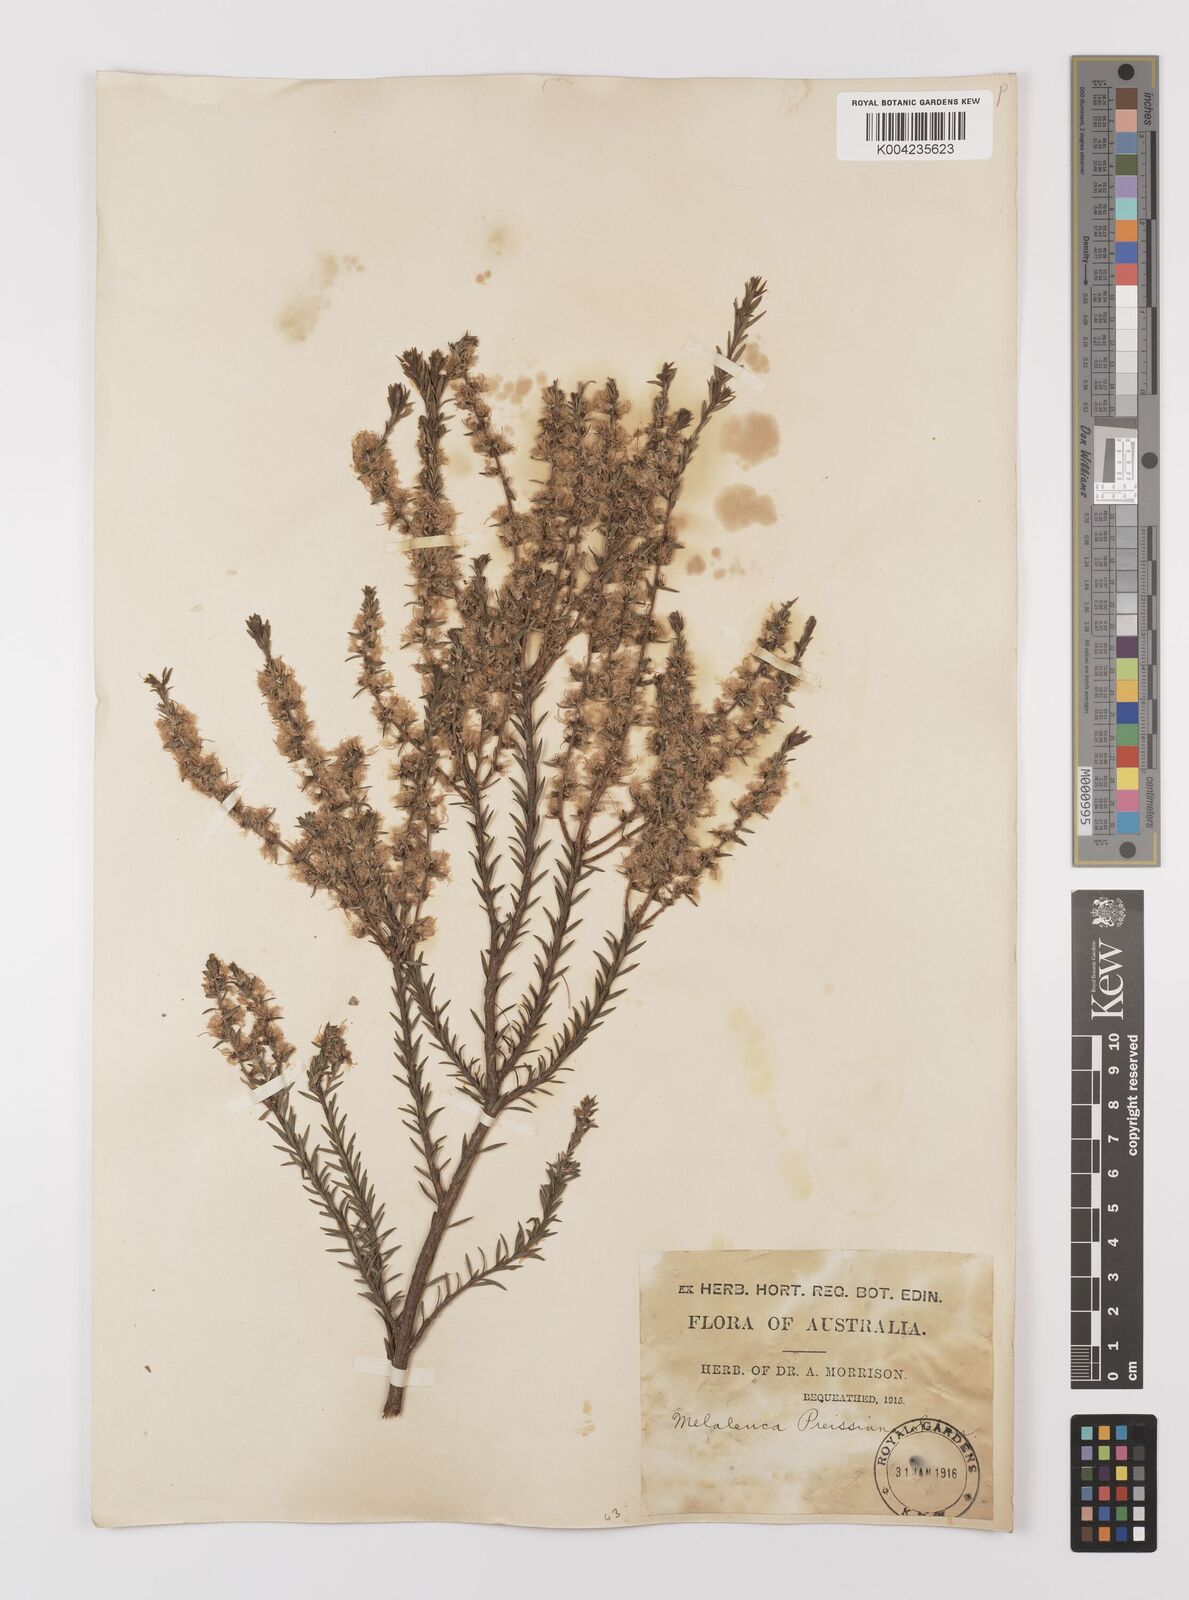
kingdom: Plantae
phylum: Tracheophyta
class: Magnoliopsida
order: Myrtales
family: Myrtaceae
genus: Melaleuca
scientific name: Melaleuca preissiana
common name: Preiss's paperbark
